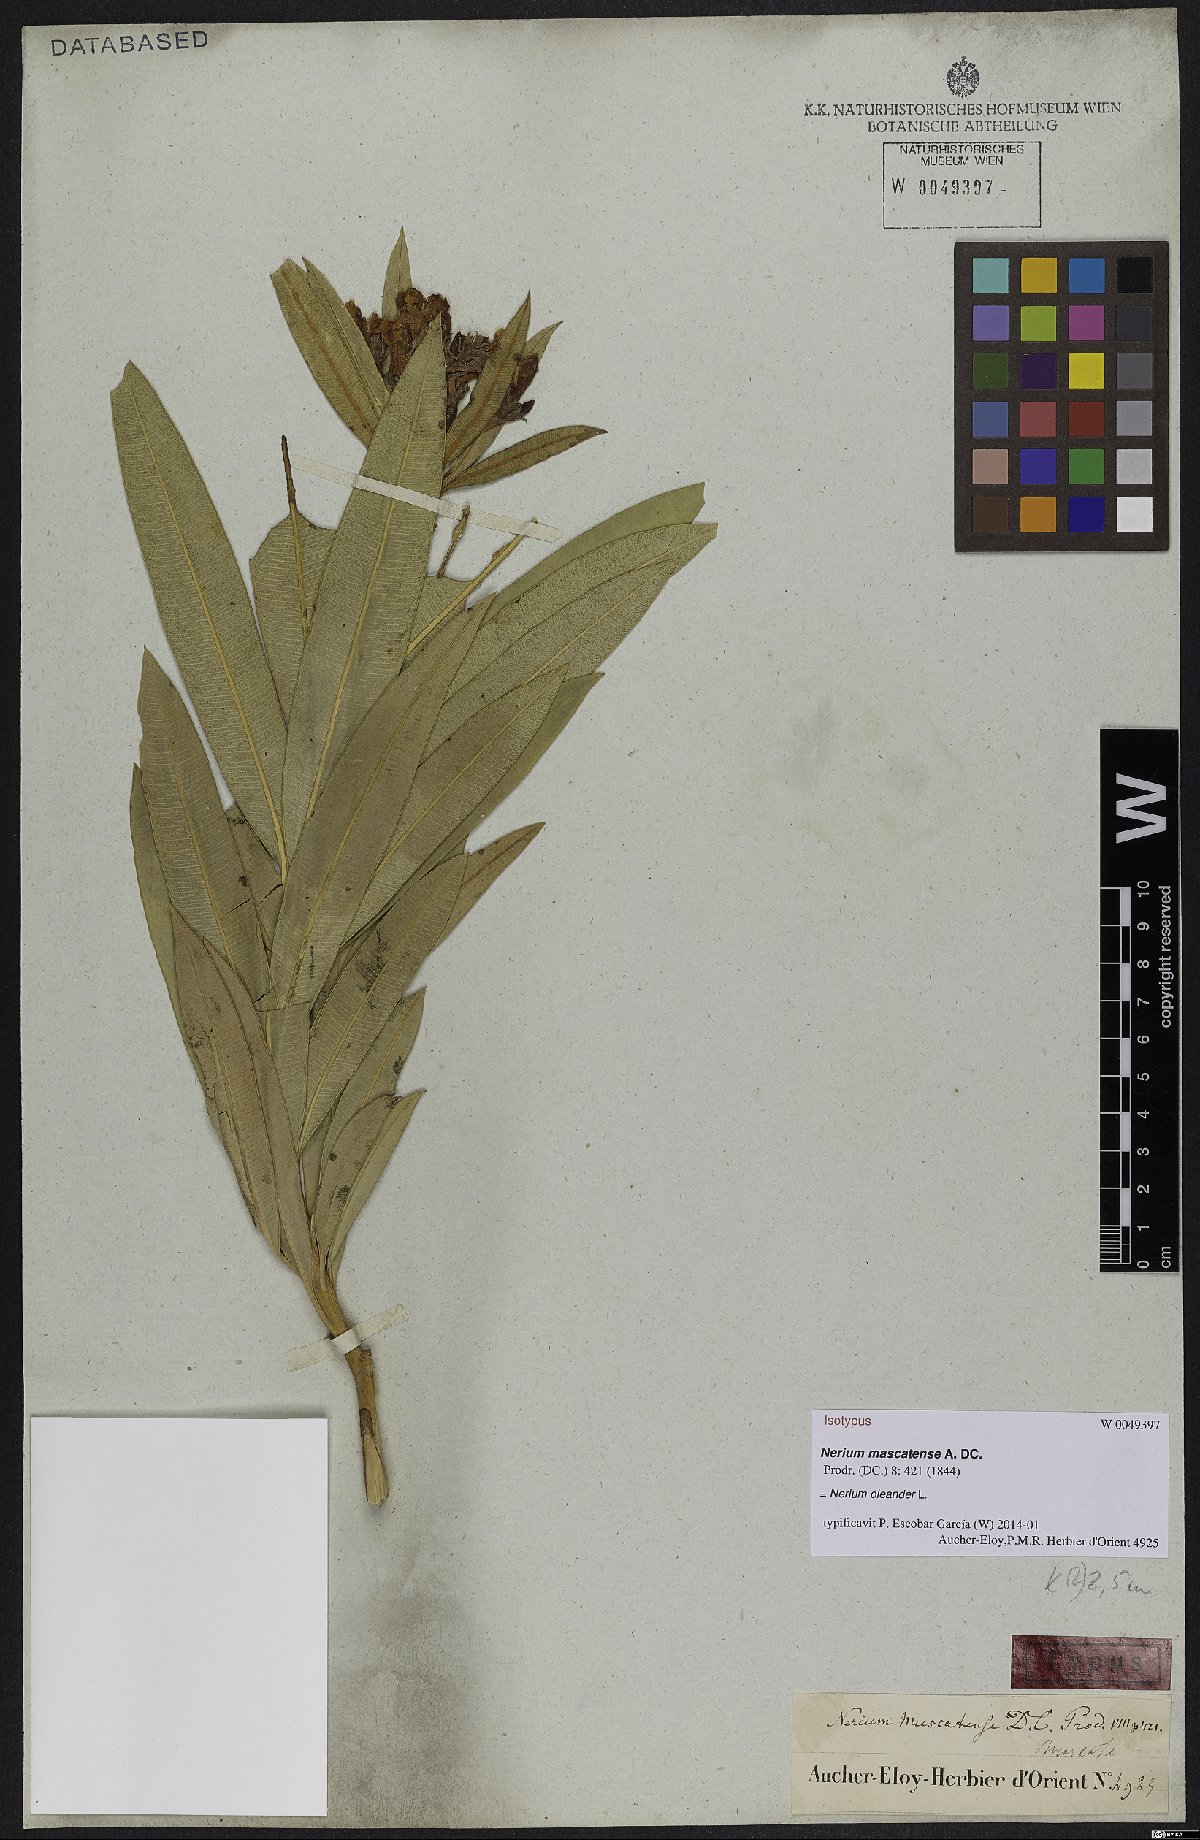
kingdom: Plantae
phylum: Tracheophyta
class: Magnoliopsida
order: Gentianales
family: Apocynaceae
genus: Nerium
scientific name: Nerium oleander
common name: Oleander
